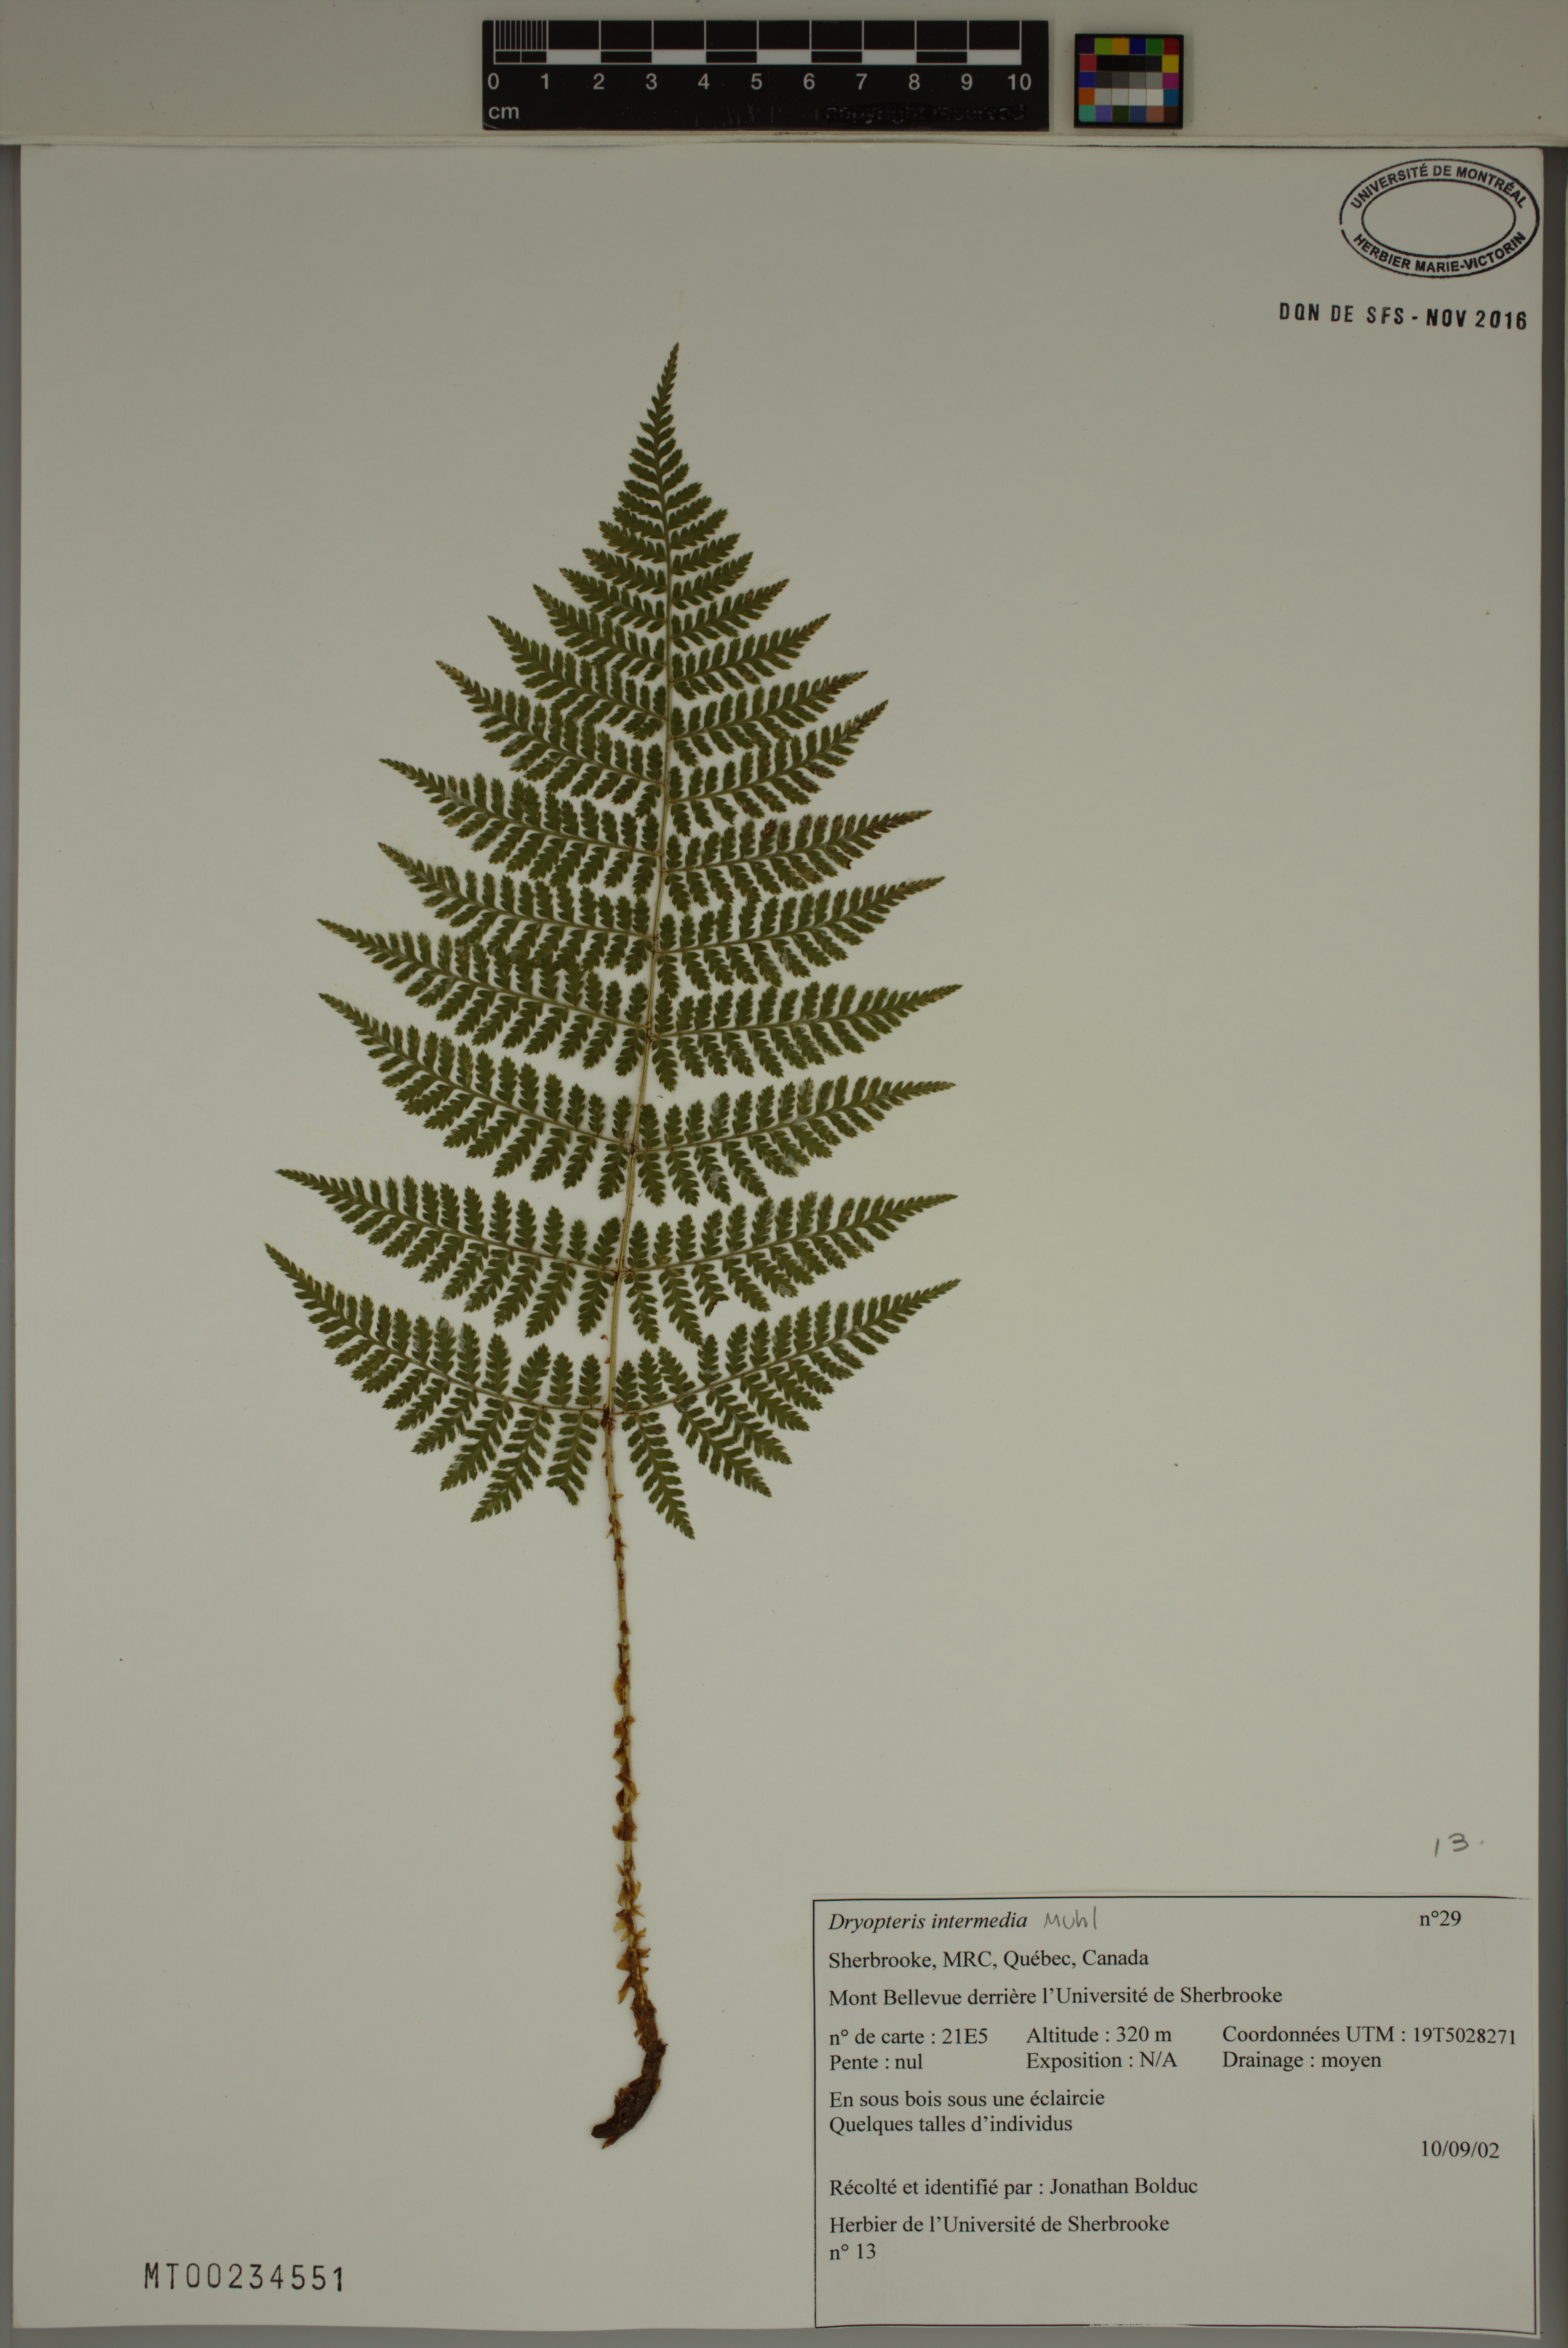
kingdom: Plantae
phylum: Tracheophyta
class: Polypodiopsida
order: Polypodiales
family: Dryopteridaceae
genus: Dryopteris
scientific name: Dryopteris intermedia
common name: Evergreen wood fern
